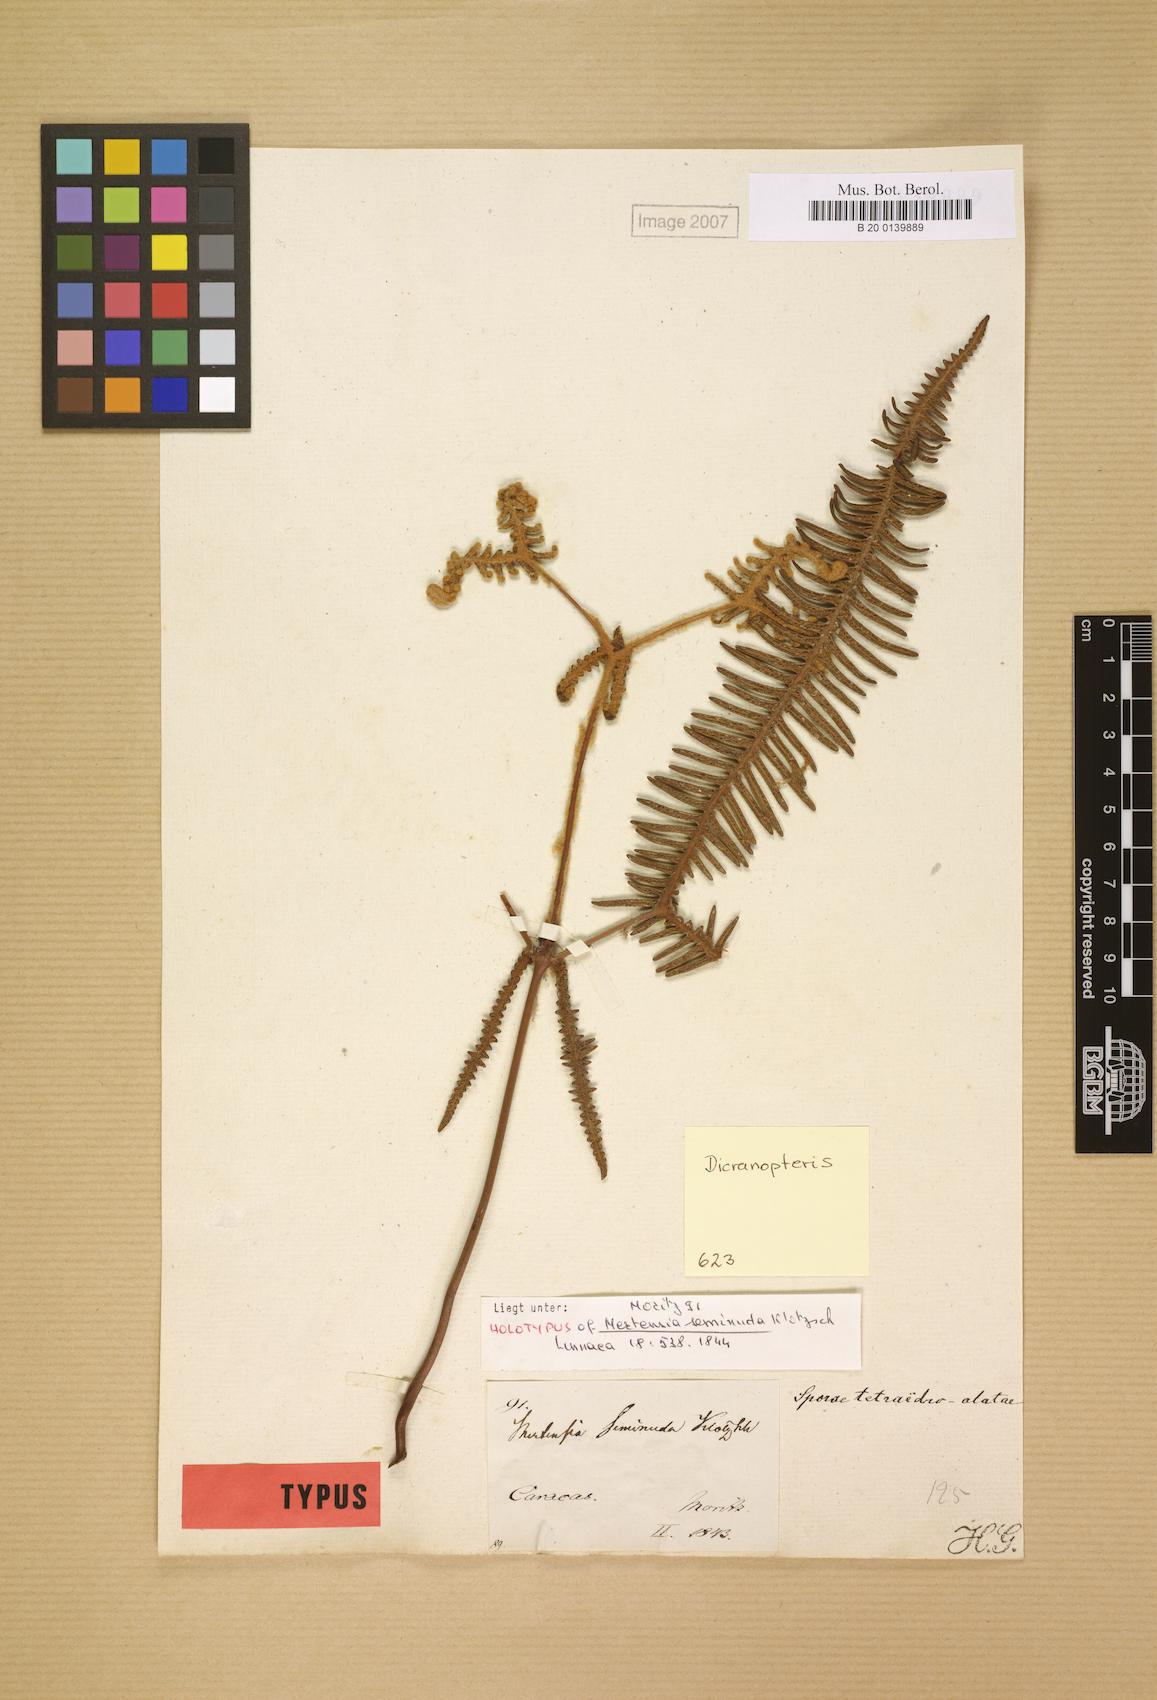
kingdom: Plantae
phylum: Tracheophyta
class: Polypodiopsida
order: Gleicheniales
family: Gleicheniaceae
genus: Dicranopteris
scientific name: Dicranopteris seminuda
